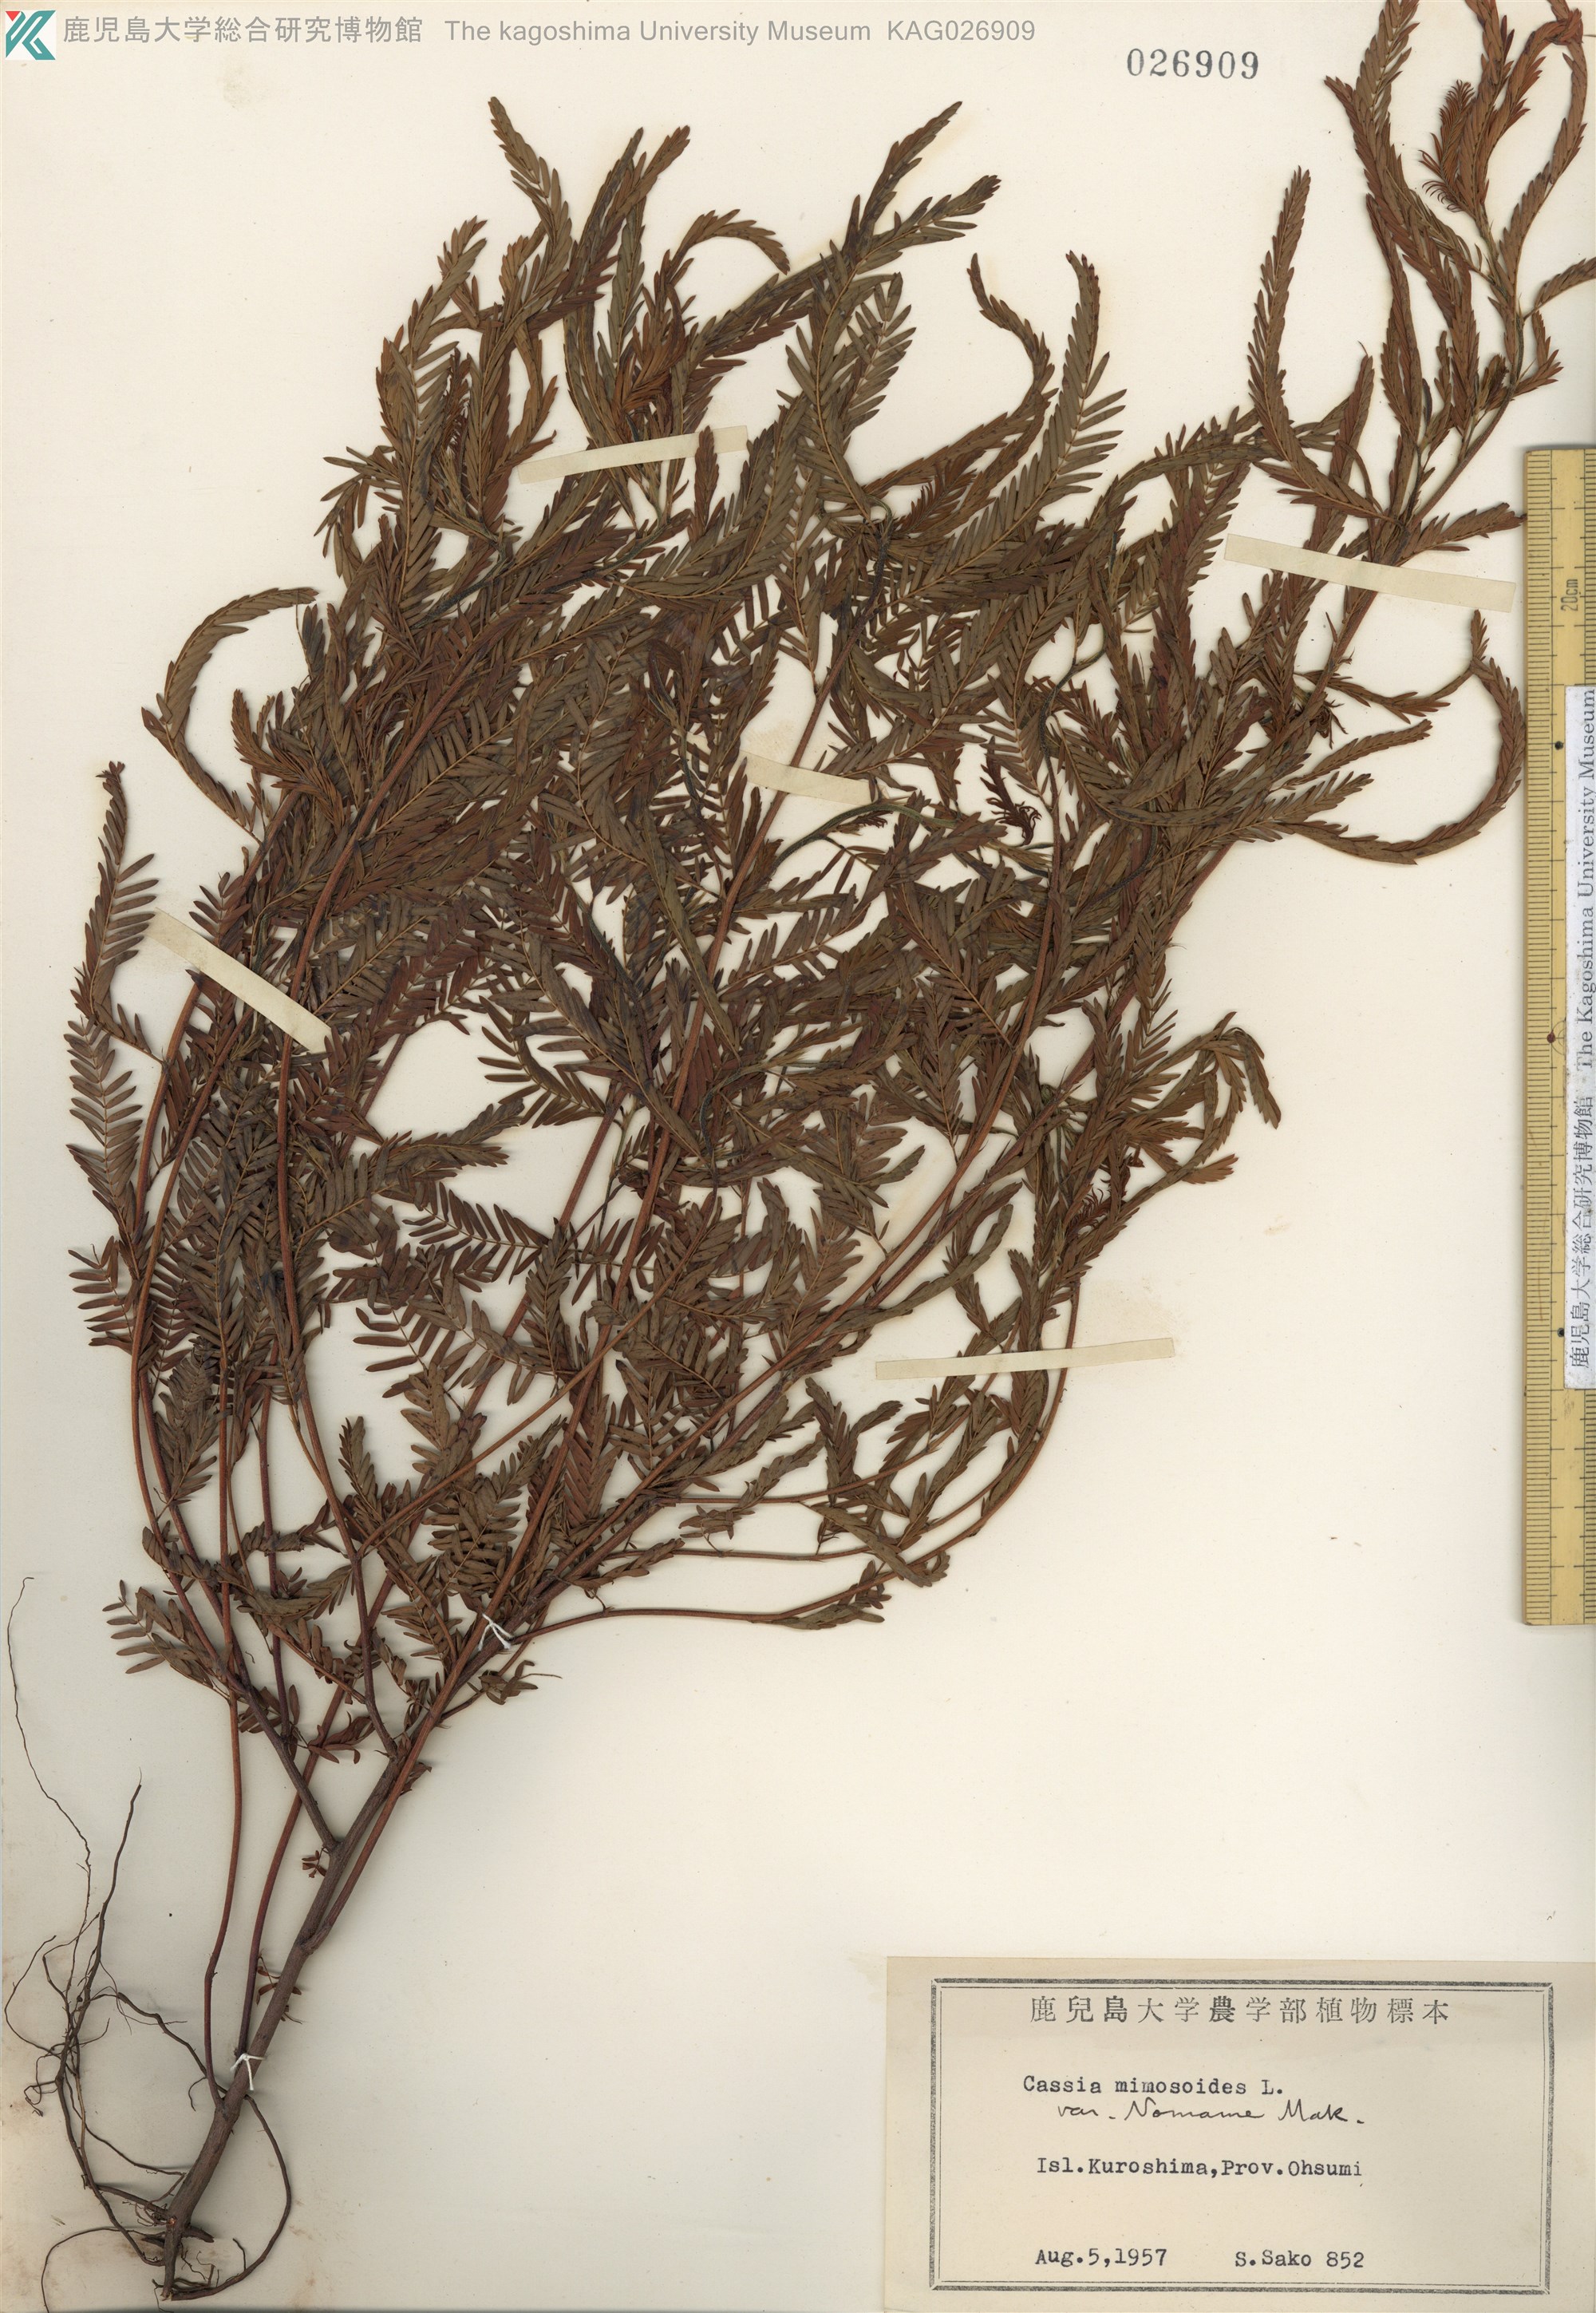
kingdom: Plantae
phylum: Tracheophyta
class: Magnoliopsida
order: Fabales
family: Fabaceae
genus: Chamaecrista
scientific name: Chamaecrista nomame
